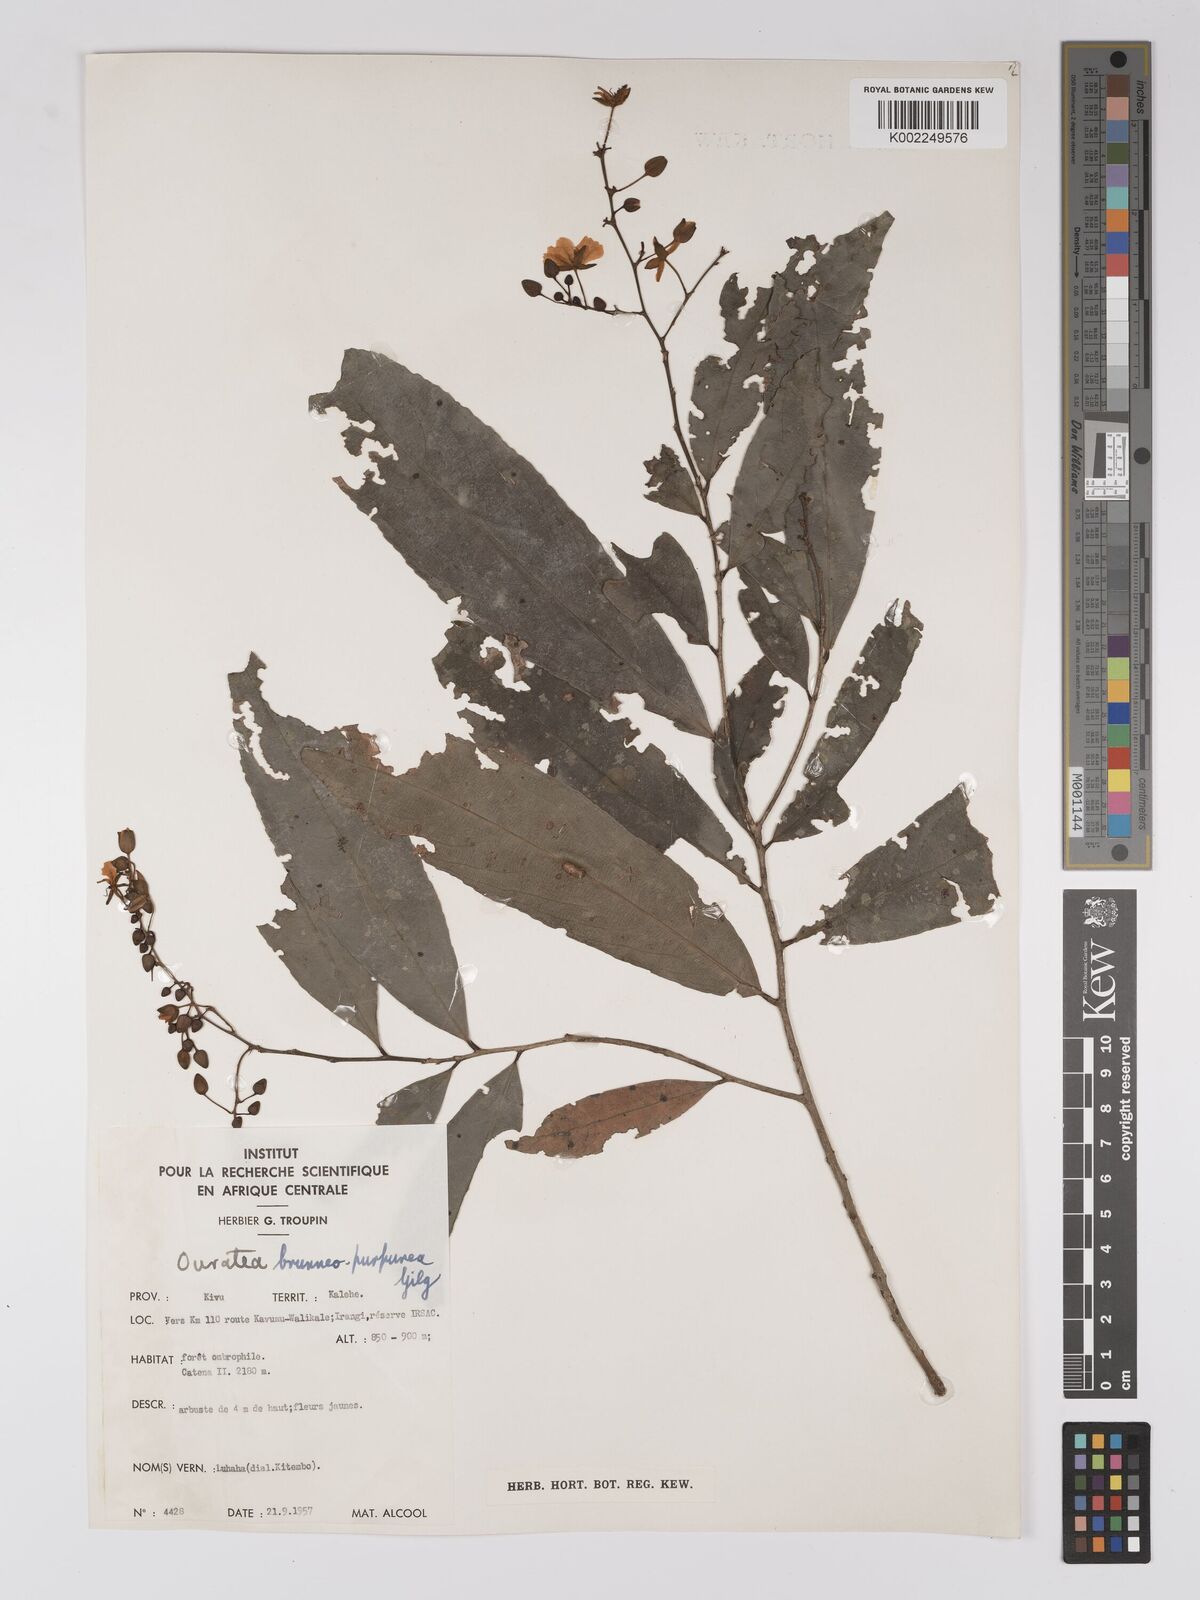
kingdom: Plantae
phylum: Tracheophyta
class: Magnoliopsida
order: Malpighiales
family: Ochnaceae
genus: Campylospermum
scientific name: Campylospermum reticulatum
